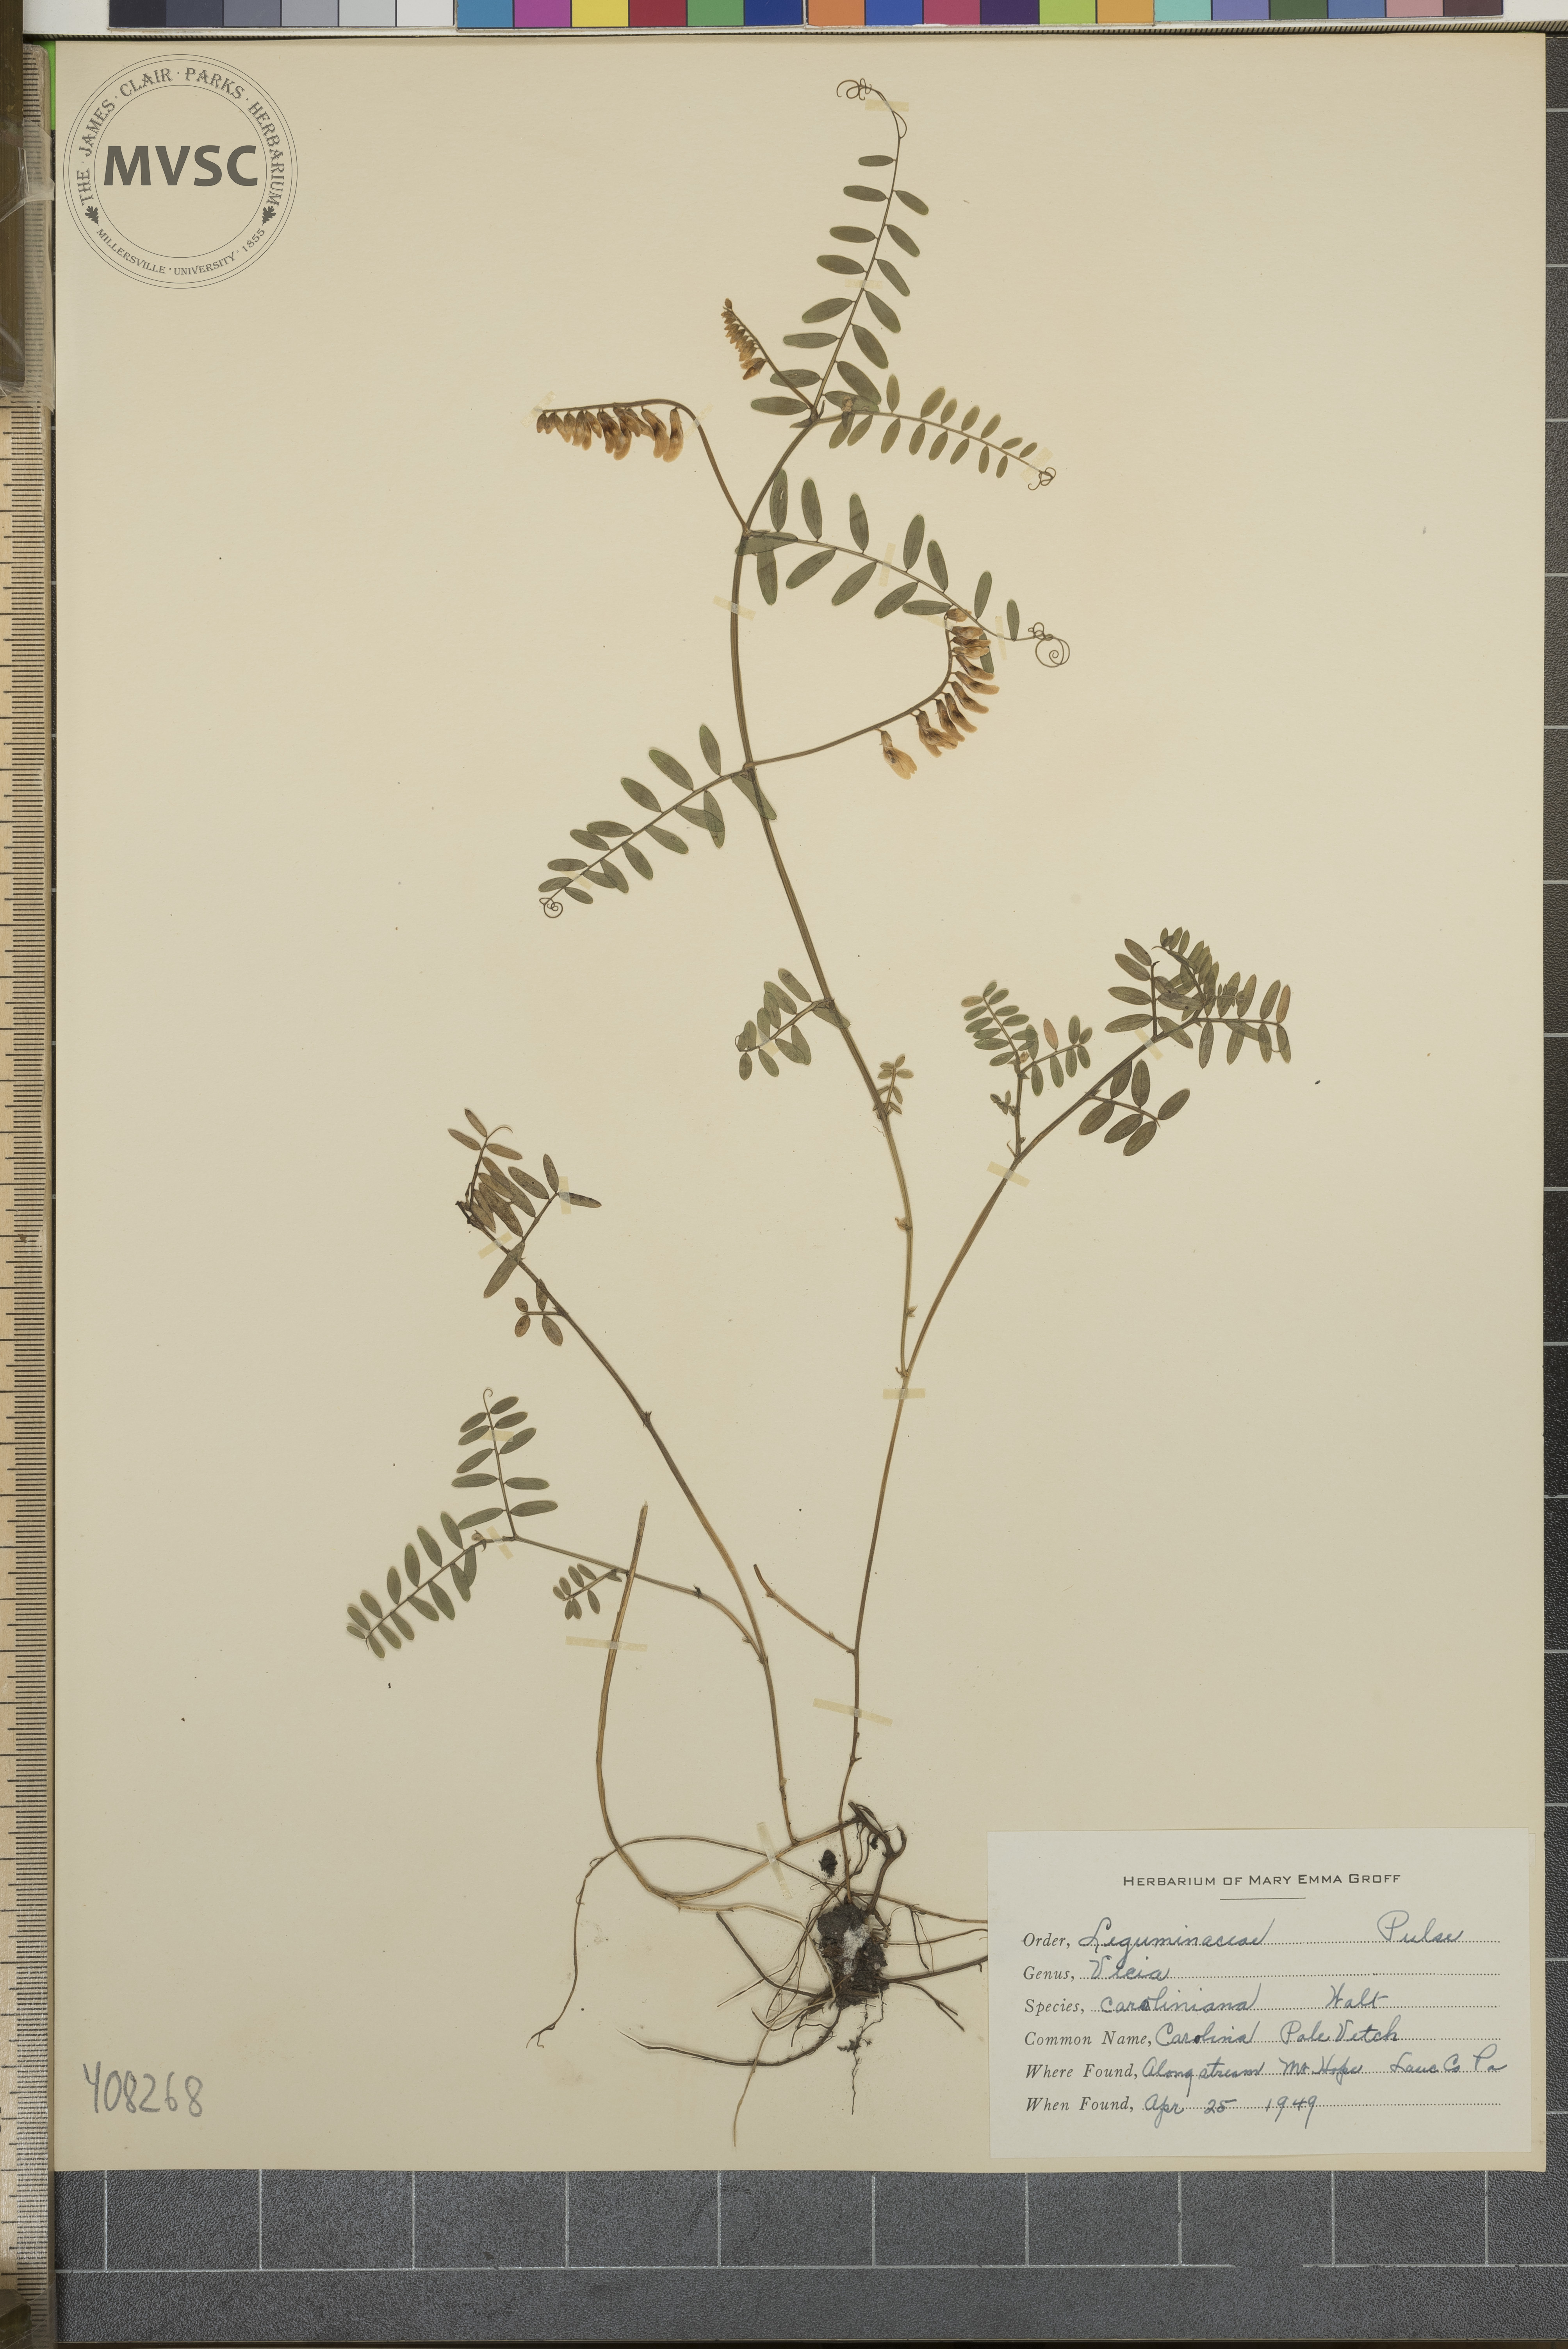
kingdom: Plantae
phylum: Tracheophyta
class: Magnoliopsida
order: Fabales
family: Fabaceae
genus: Vicia
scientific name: Vicia caroliniana
